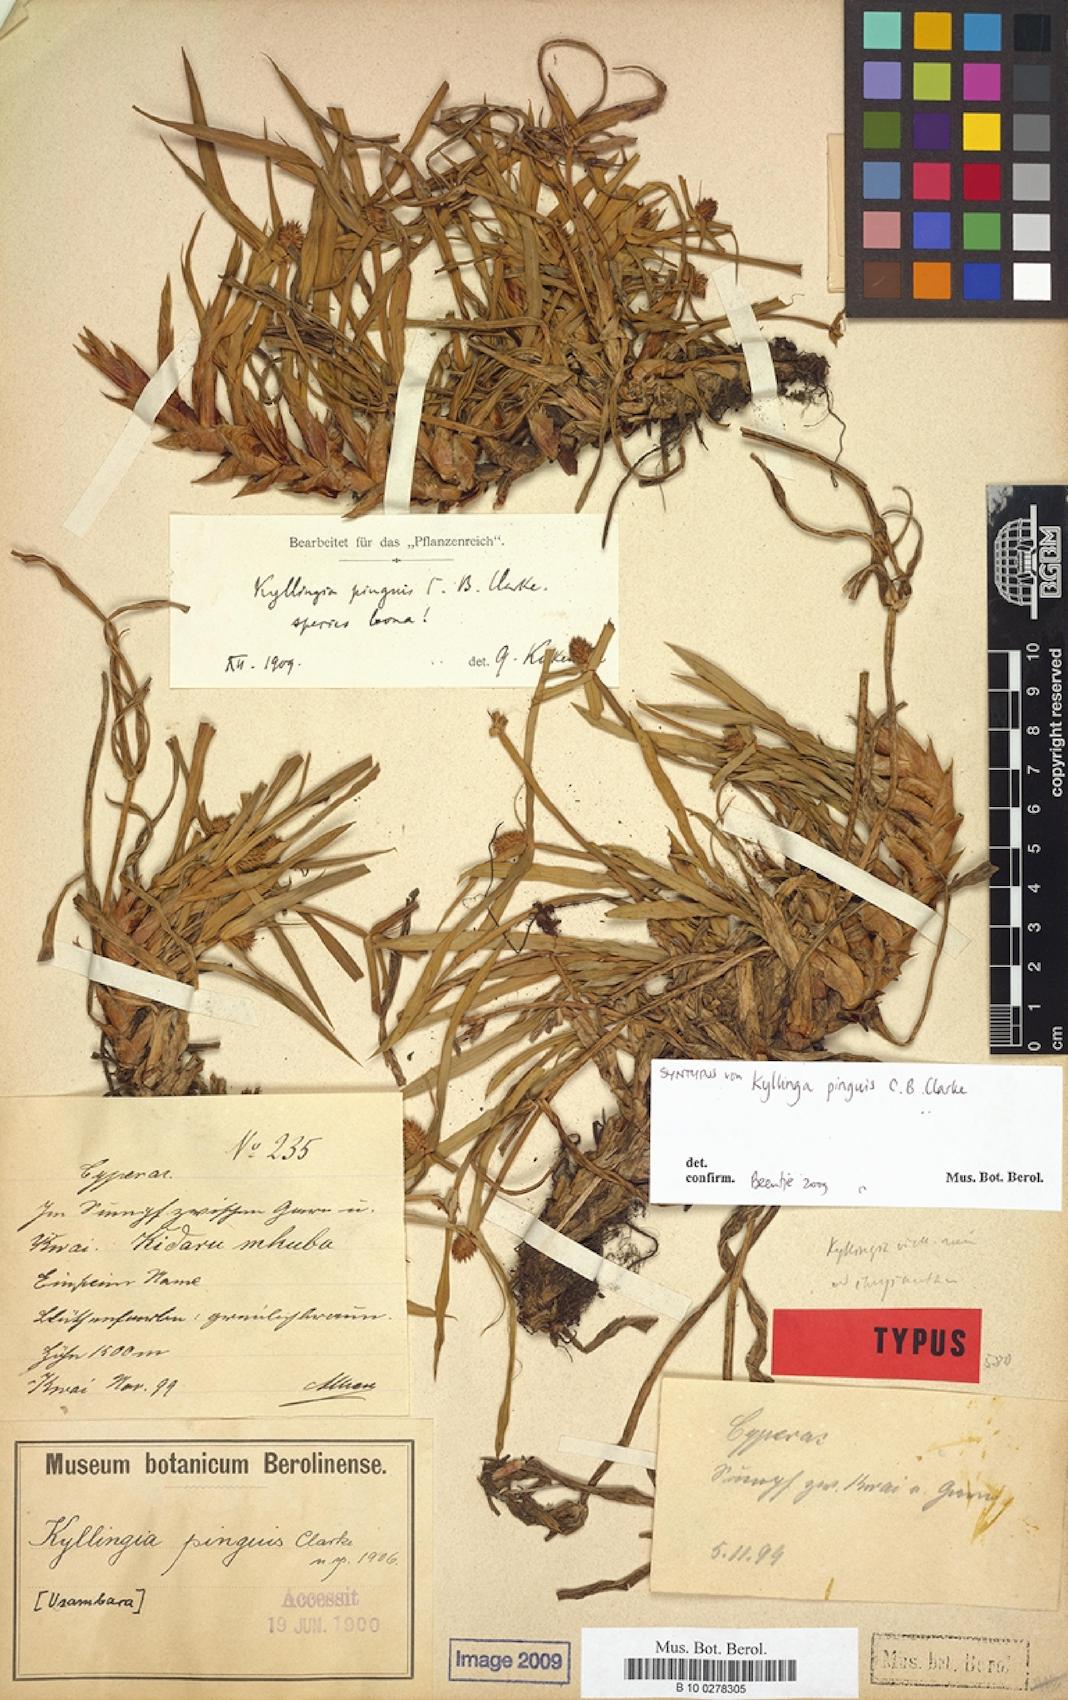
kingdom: Plantae
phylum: Tracheophyta
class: Liliopsida
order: Poales
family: Cyperaceae
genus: Cyperus
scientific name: Cyperus ruwenzoriensis
